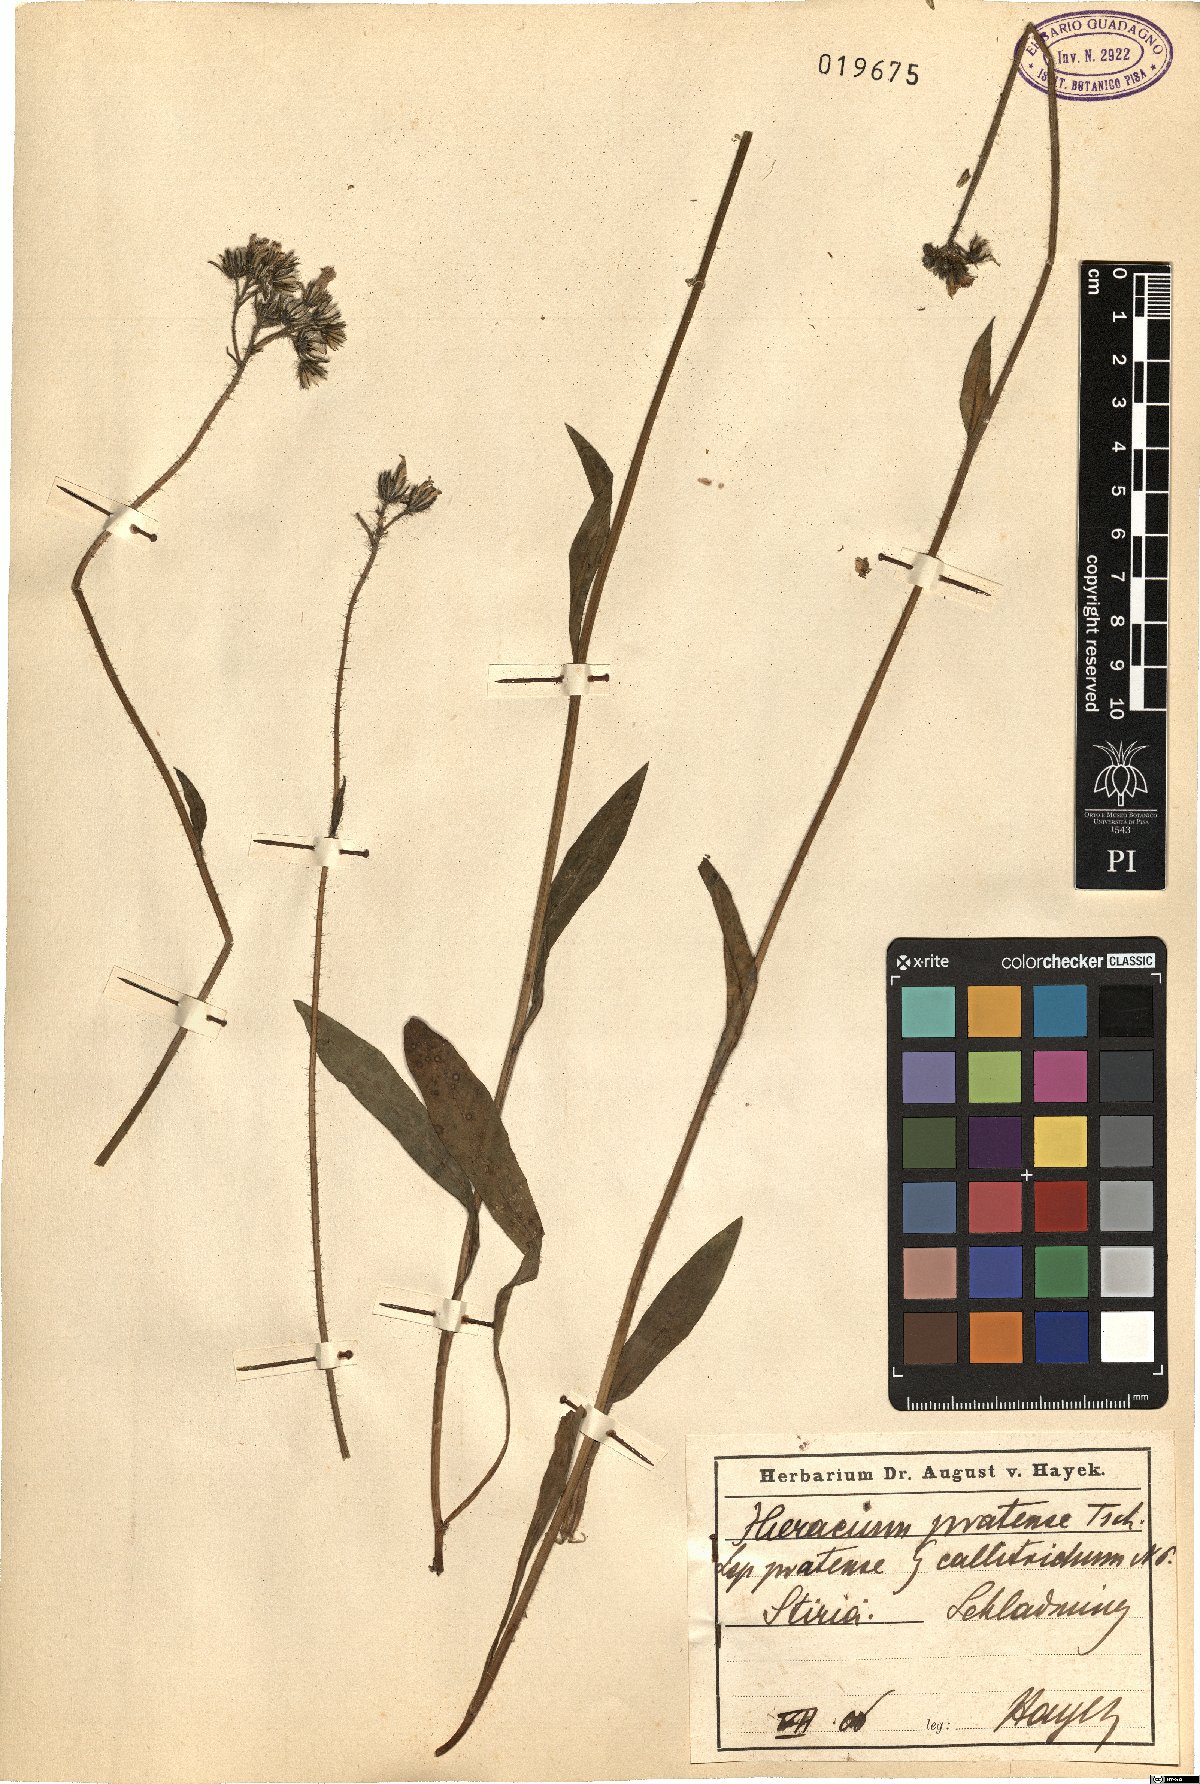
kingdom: Plantae
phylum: Tracheophyta
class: Magnoliopsida
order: Asterales
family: Asteraceae
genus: Pilosella
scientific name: Pilosella caespitosa
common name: Yellow fox-and-cubs
